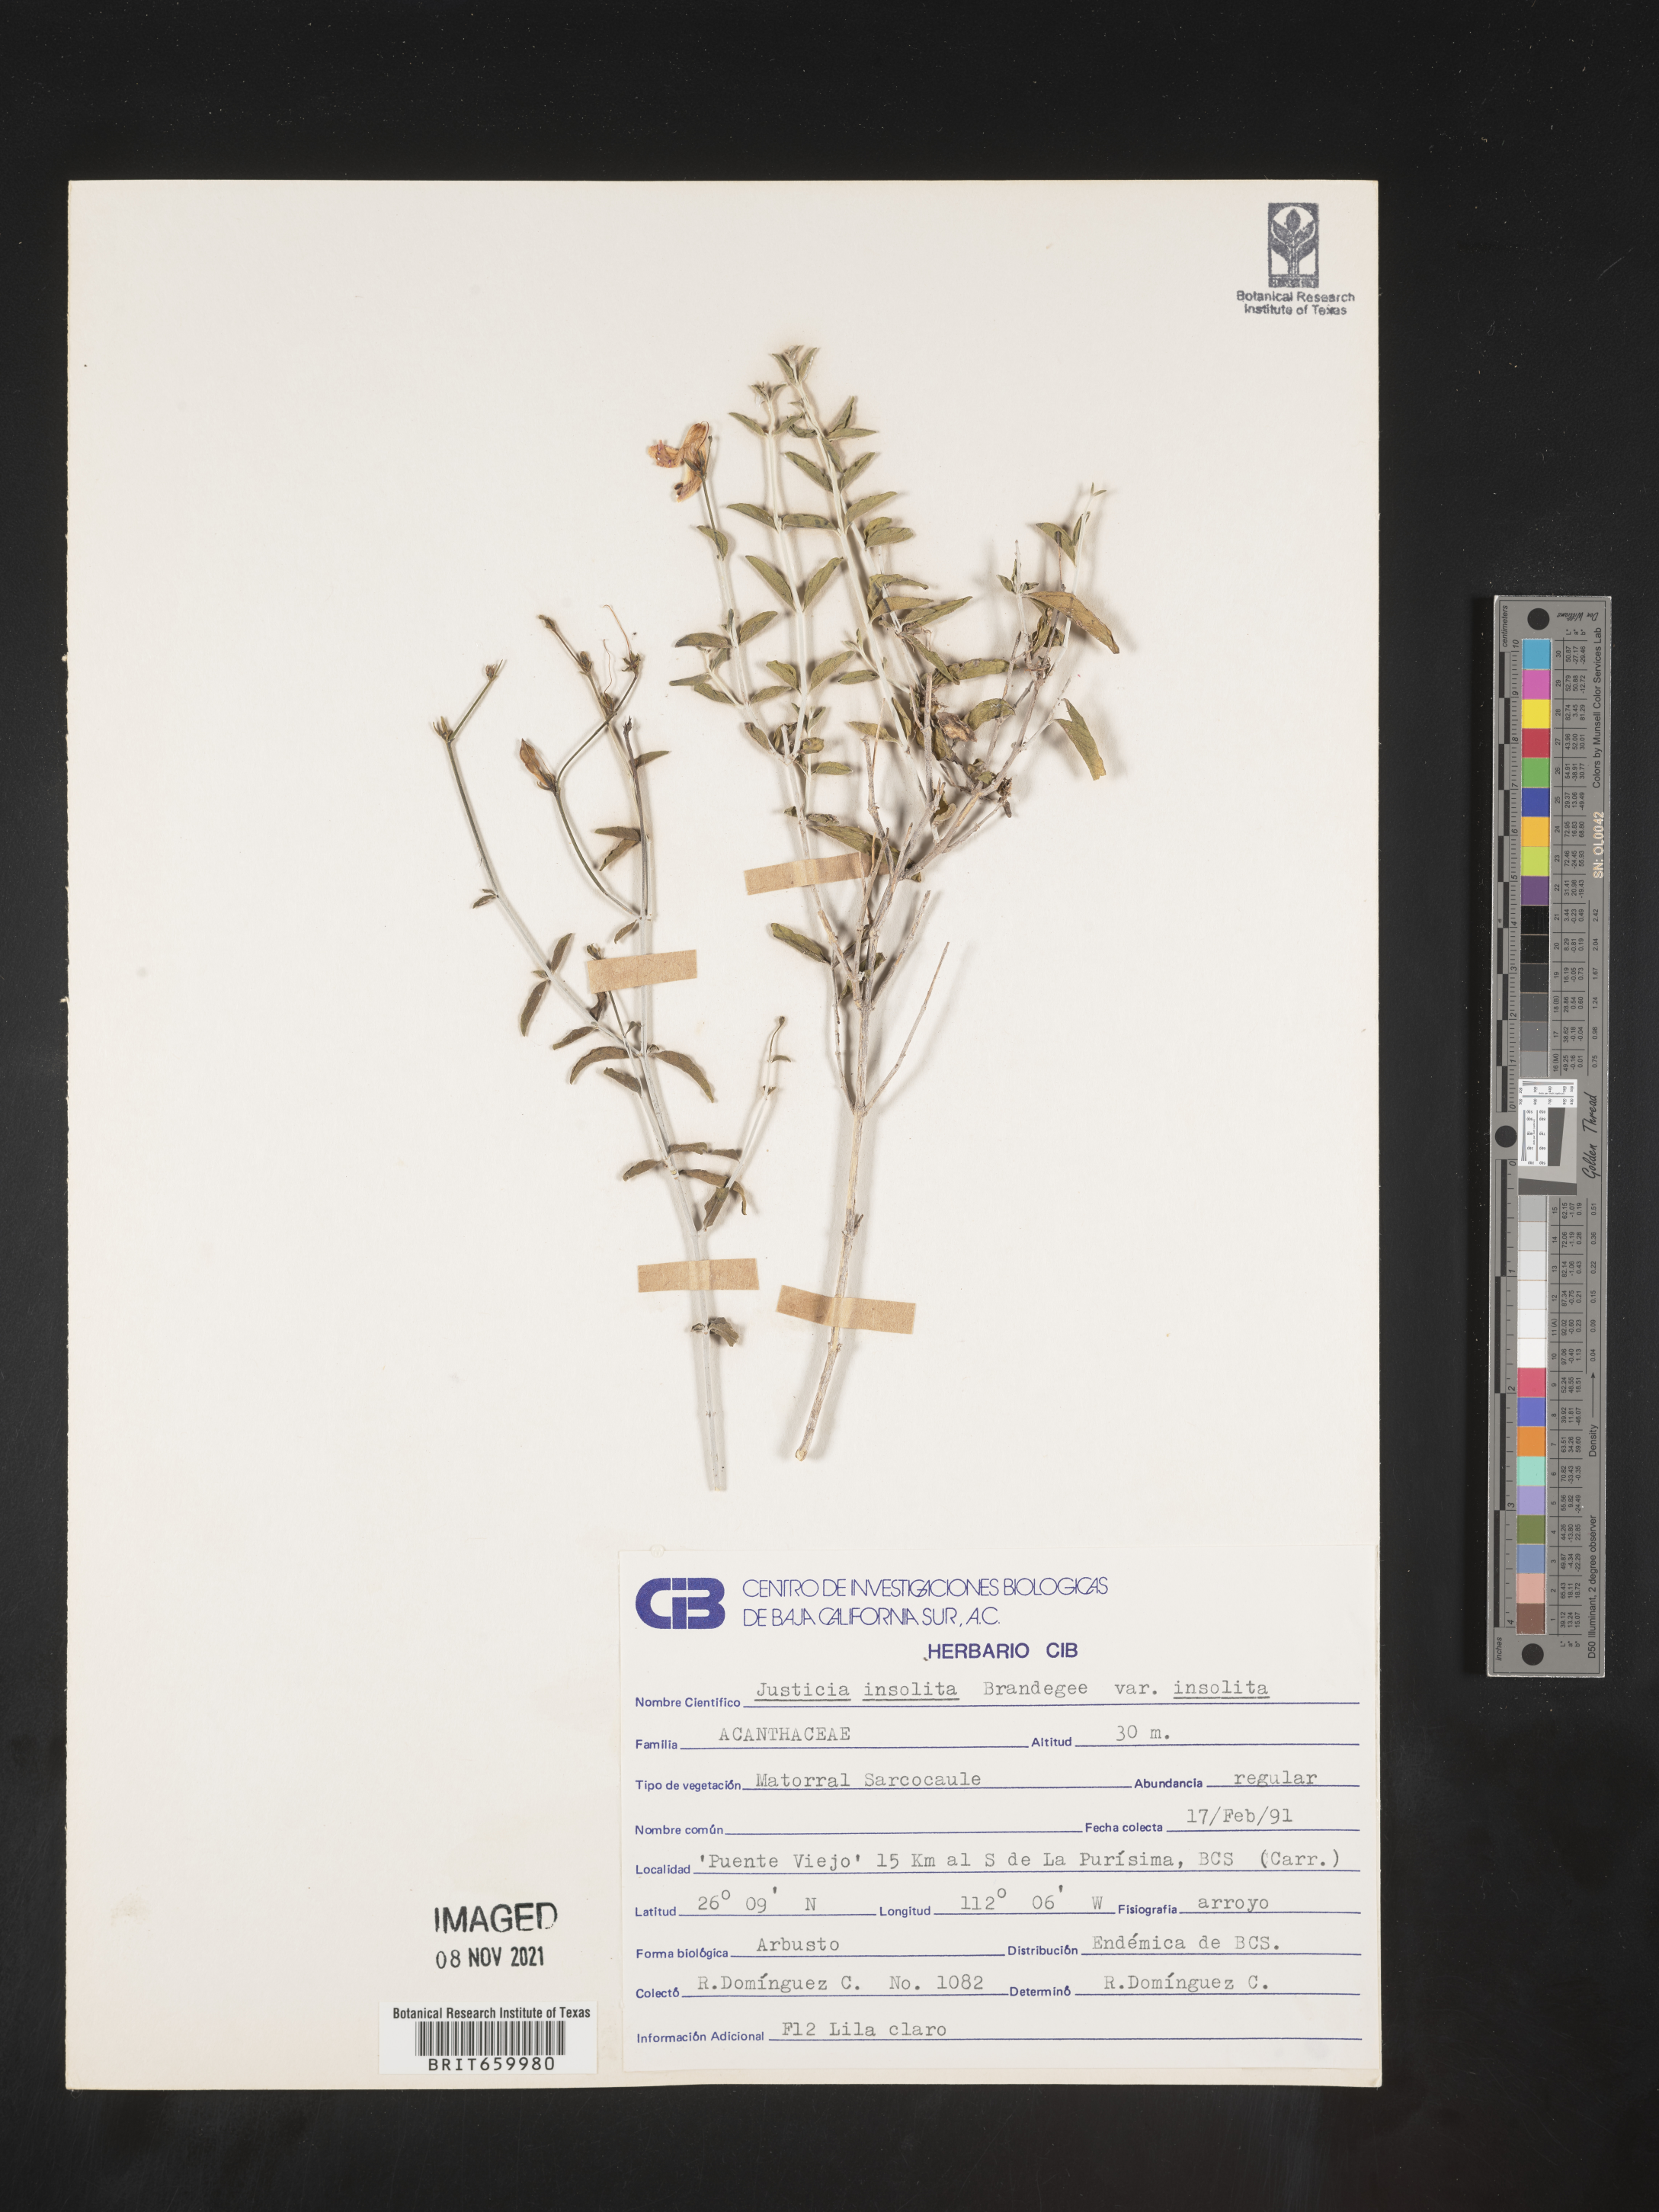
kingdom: Plantae
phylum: Tracheophyta
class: Magnoliopsida
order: Lamiales
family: Acanthaceae
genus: Justicia
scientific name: Justicia
